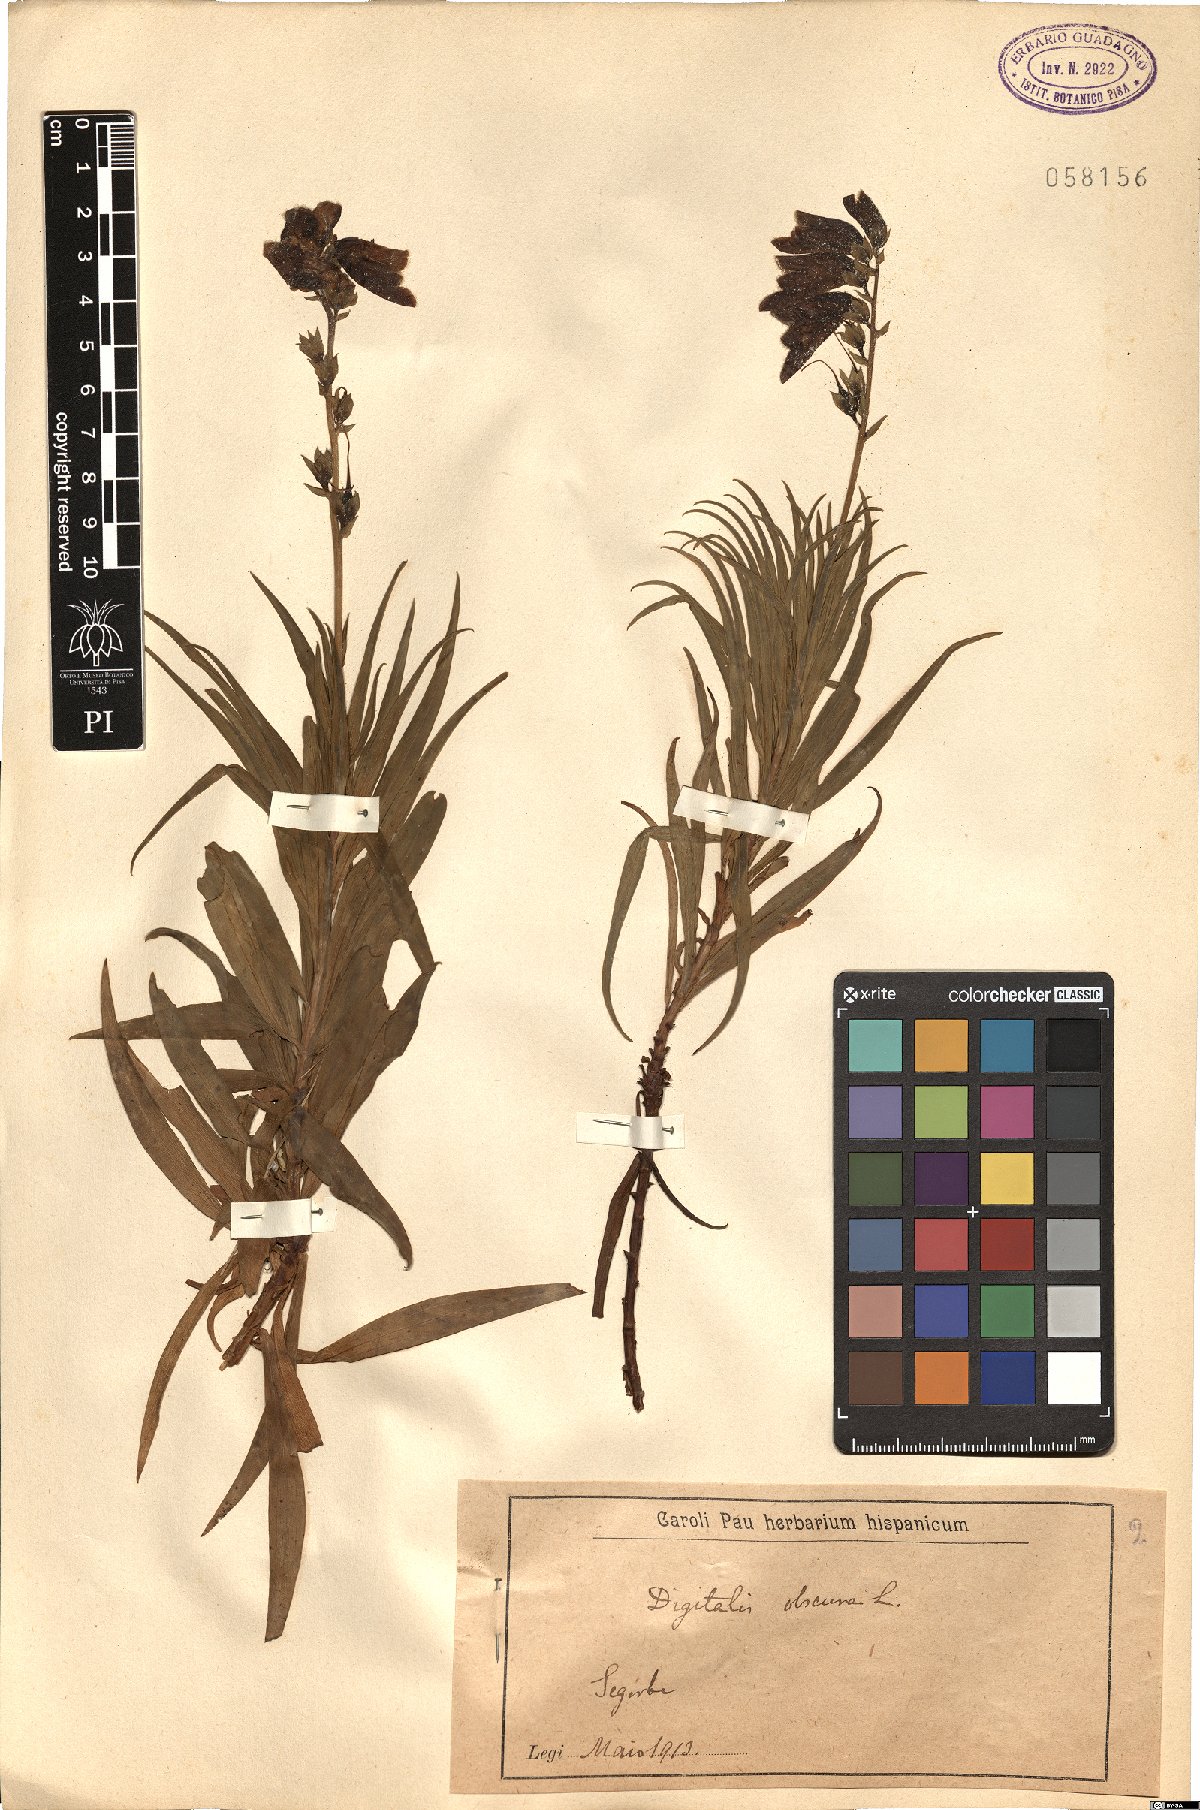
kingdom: Plantae
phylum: Tracheophyta
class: Magnoliopsida
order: Lamiales
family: Plantaginaceae
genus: Digitalis
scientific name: Digitalis obscura
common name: Willow-leaf foxglove
